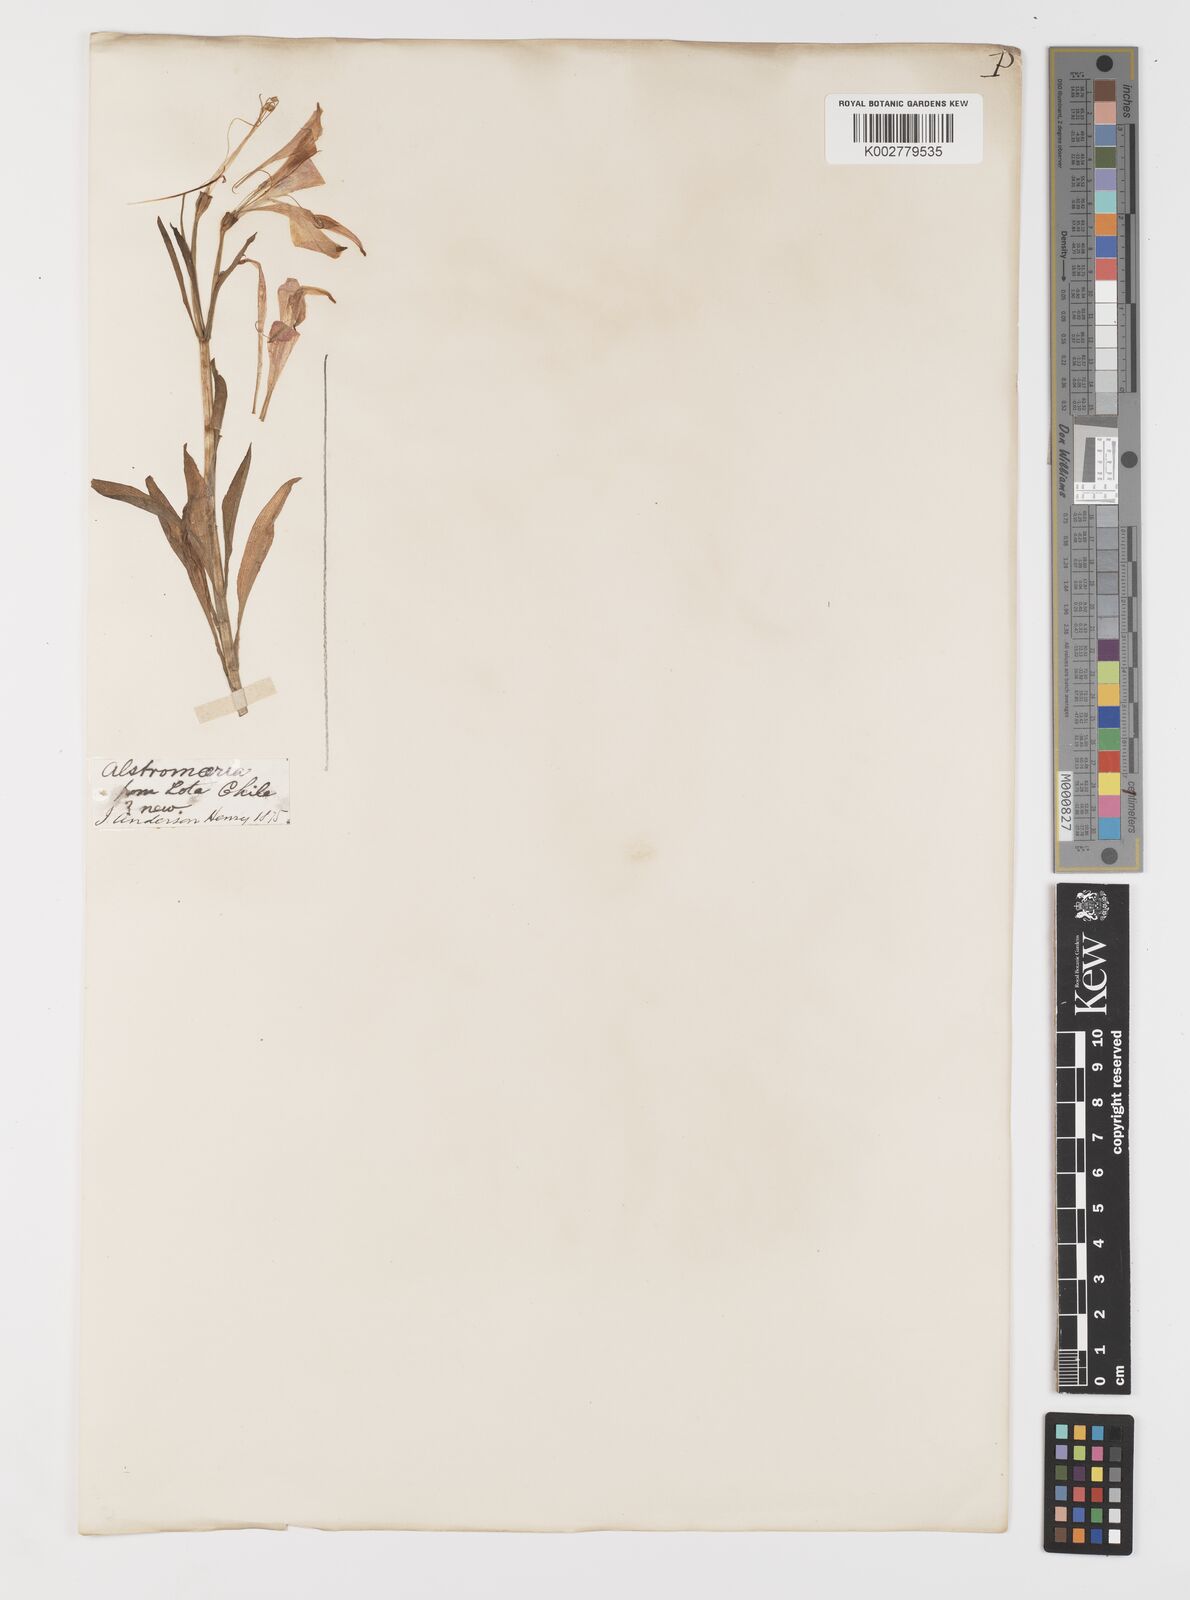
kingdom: Plantae
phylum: Tracheophyta
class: Liliopsida
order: Liliales
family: Alstroemeriaceae
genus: Alstroemeria
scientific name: Alstroemeria ligtu
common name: St. martin's-flower
